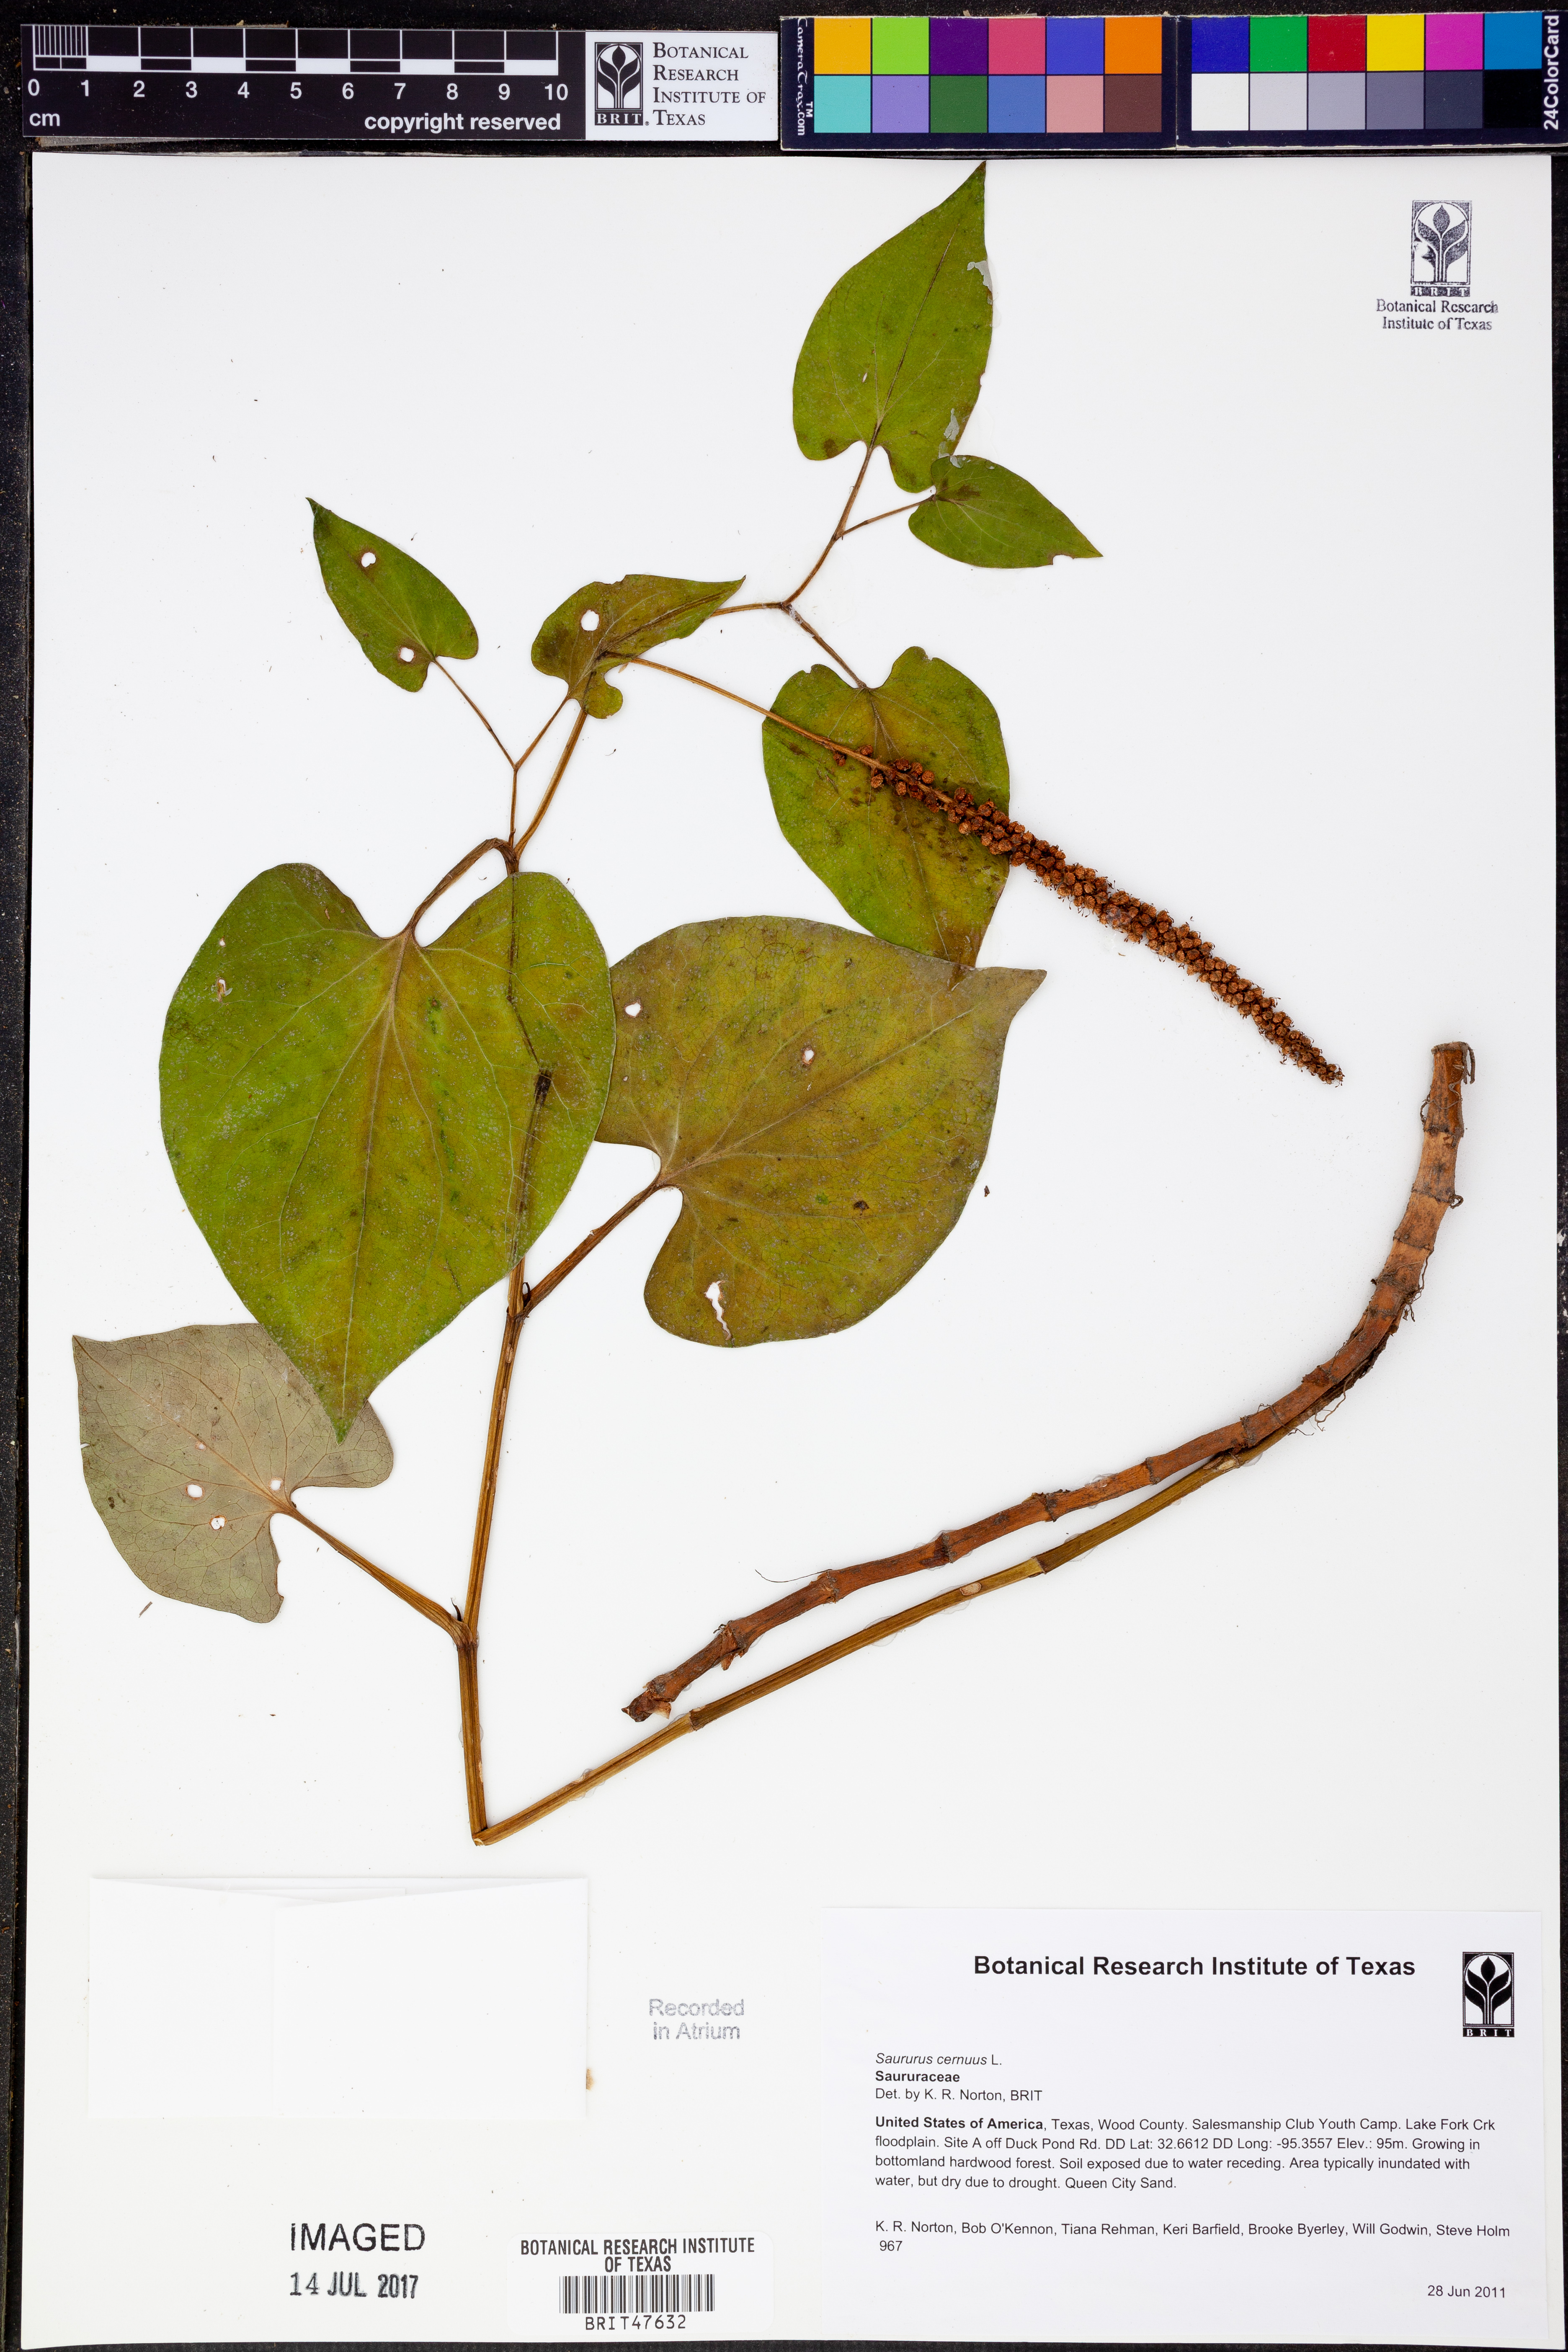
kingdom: Plantae
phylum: Tracheophyta
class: Magnoliopsida
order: Piperales
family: Saururaceae
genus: Saururus
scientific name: Saururus cernuus
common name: Lizard's-tail
